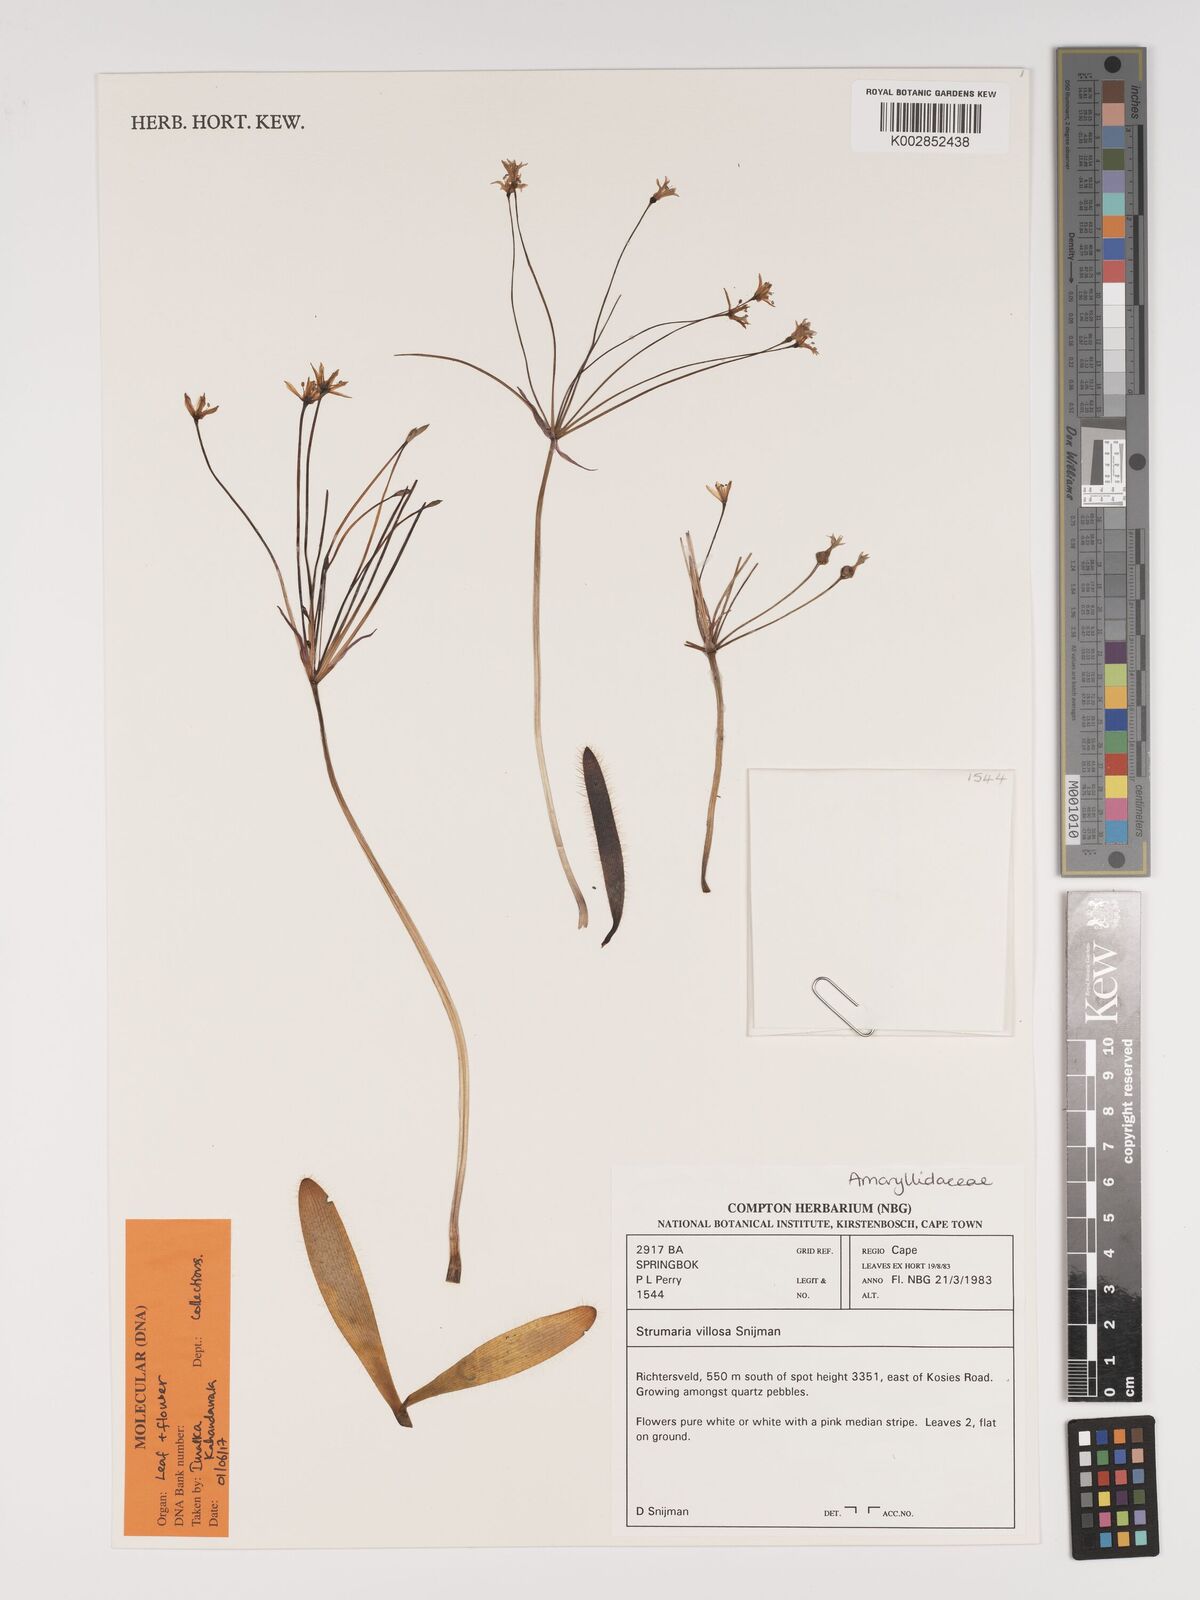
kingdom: Plantae
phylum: Tracheophyta
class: Liliopsida
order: Asparagales
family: Amaryllidaceae
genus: Strumaria
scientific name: Strumaria villosa
